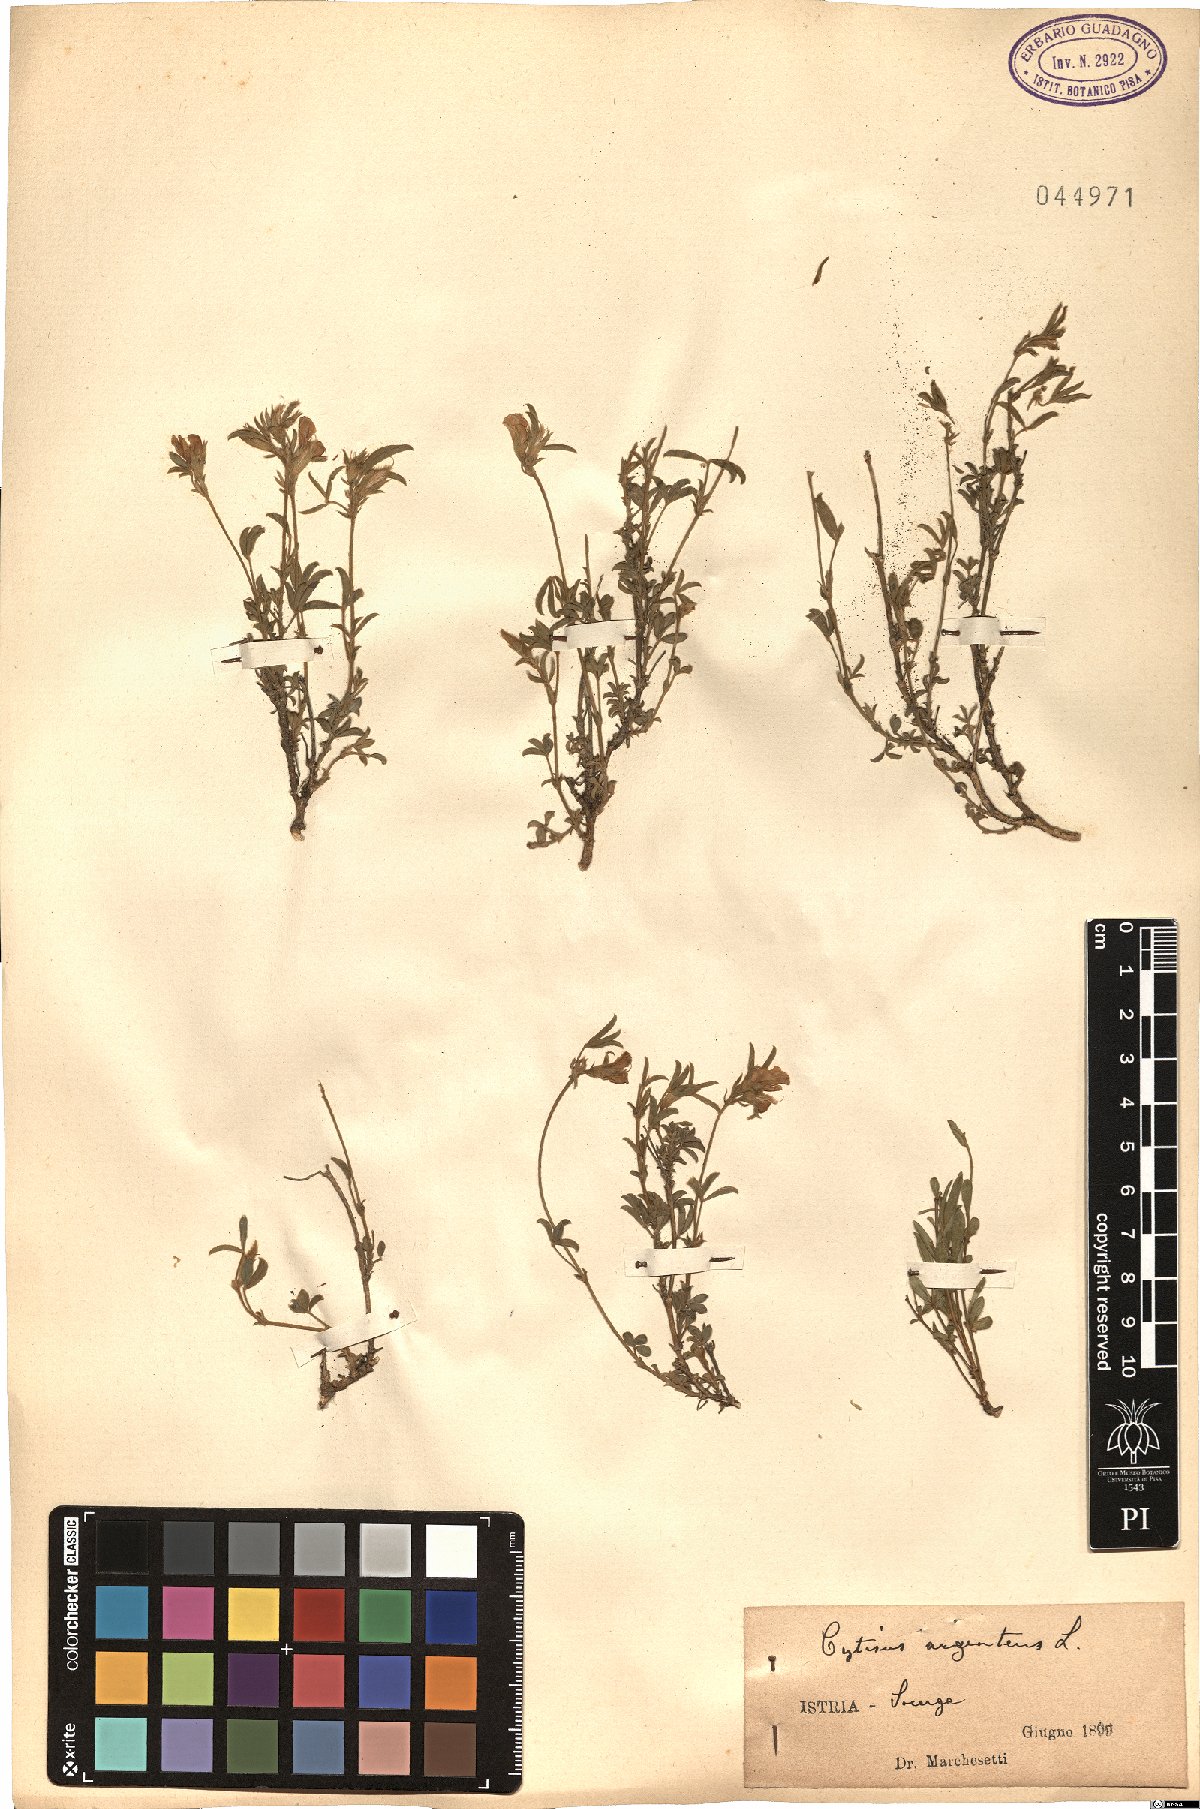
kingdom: Plantae
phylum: Tracheophyta
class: Magnoliopsida
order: Fabales
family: Fabaceae
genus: Cytisophyllum
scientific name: Cytisophyllum Cytisus argenteus
